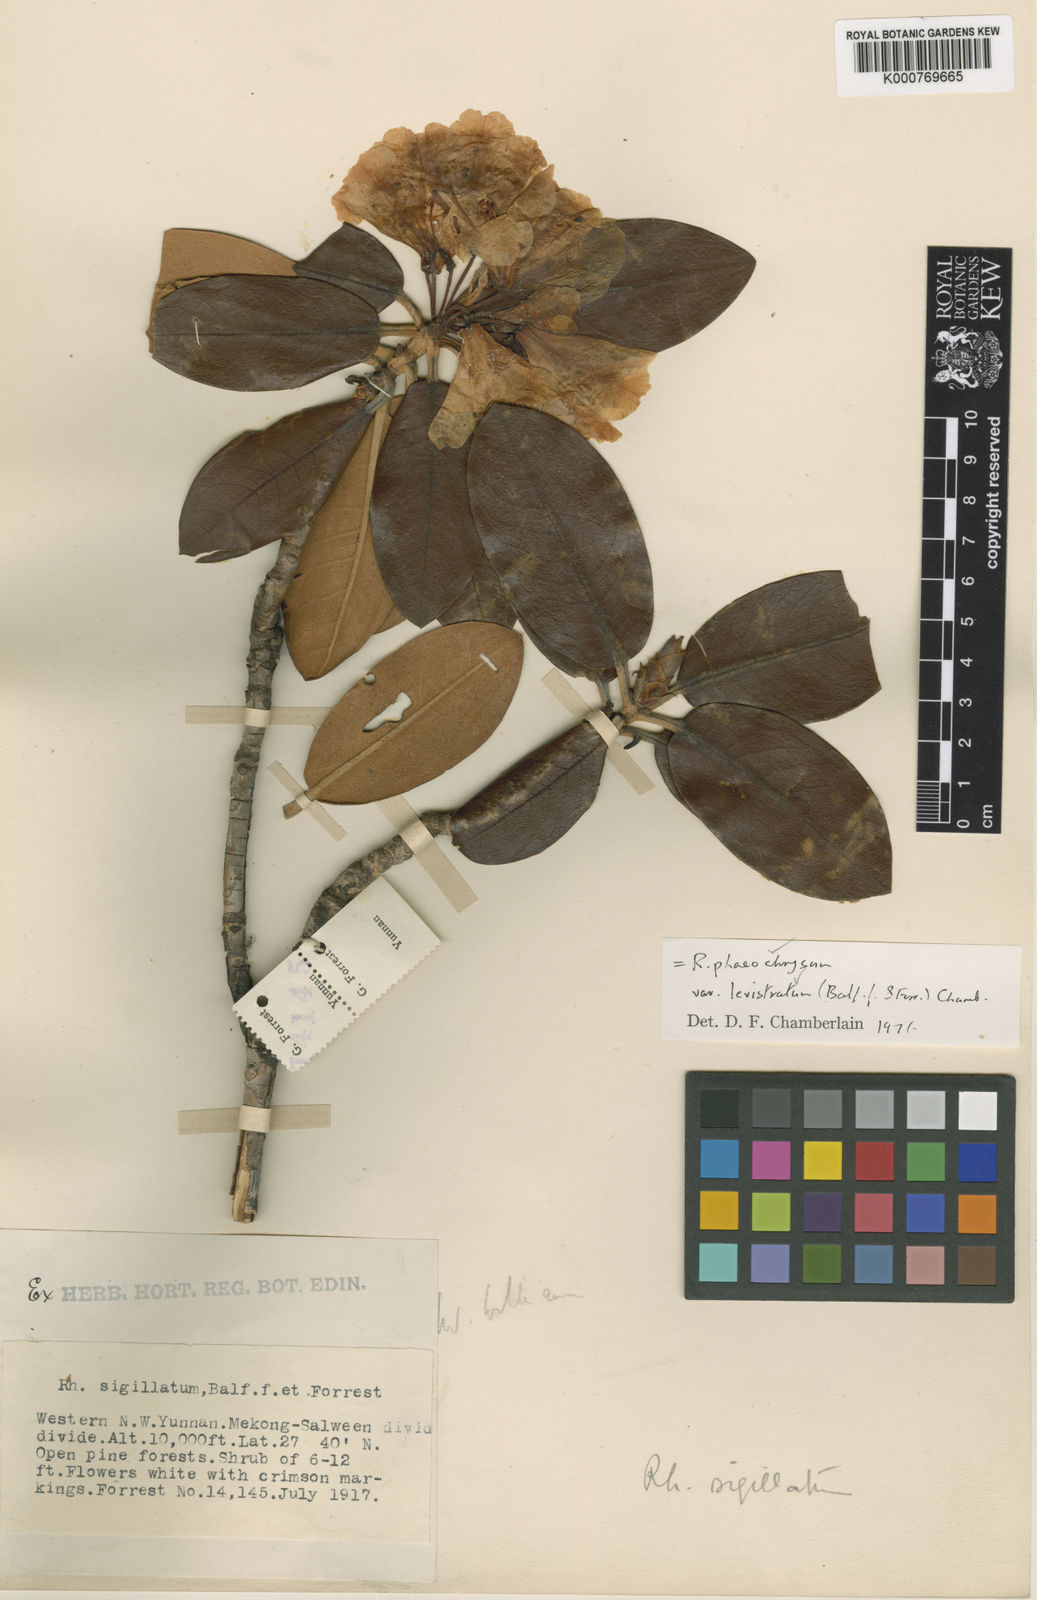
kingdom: Plantae
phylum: Tracheophyta
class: Magnoliopsida
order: Ericales
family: Ericaceae
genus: Rhododendron
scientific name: Rhododendron phaeochrysum
